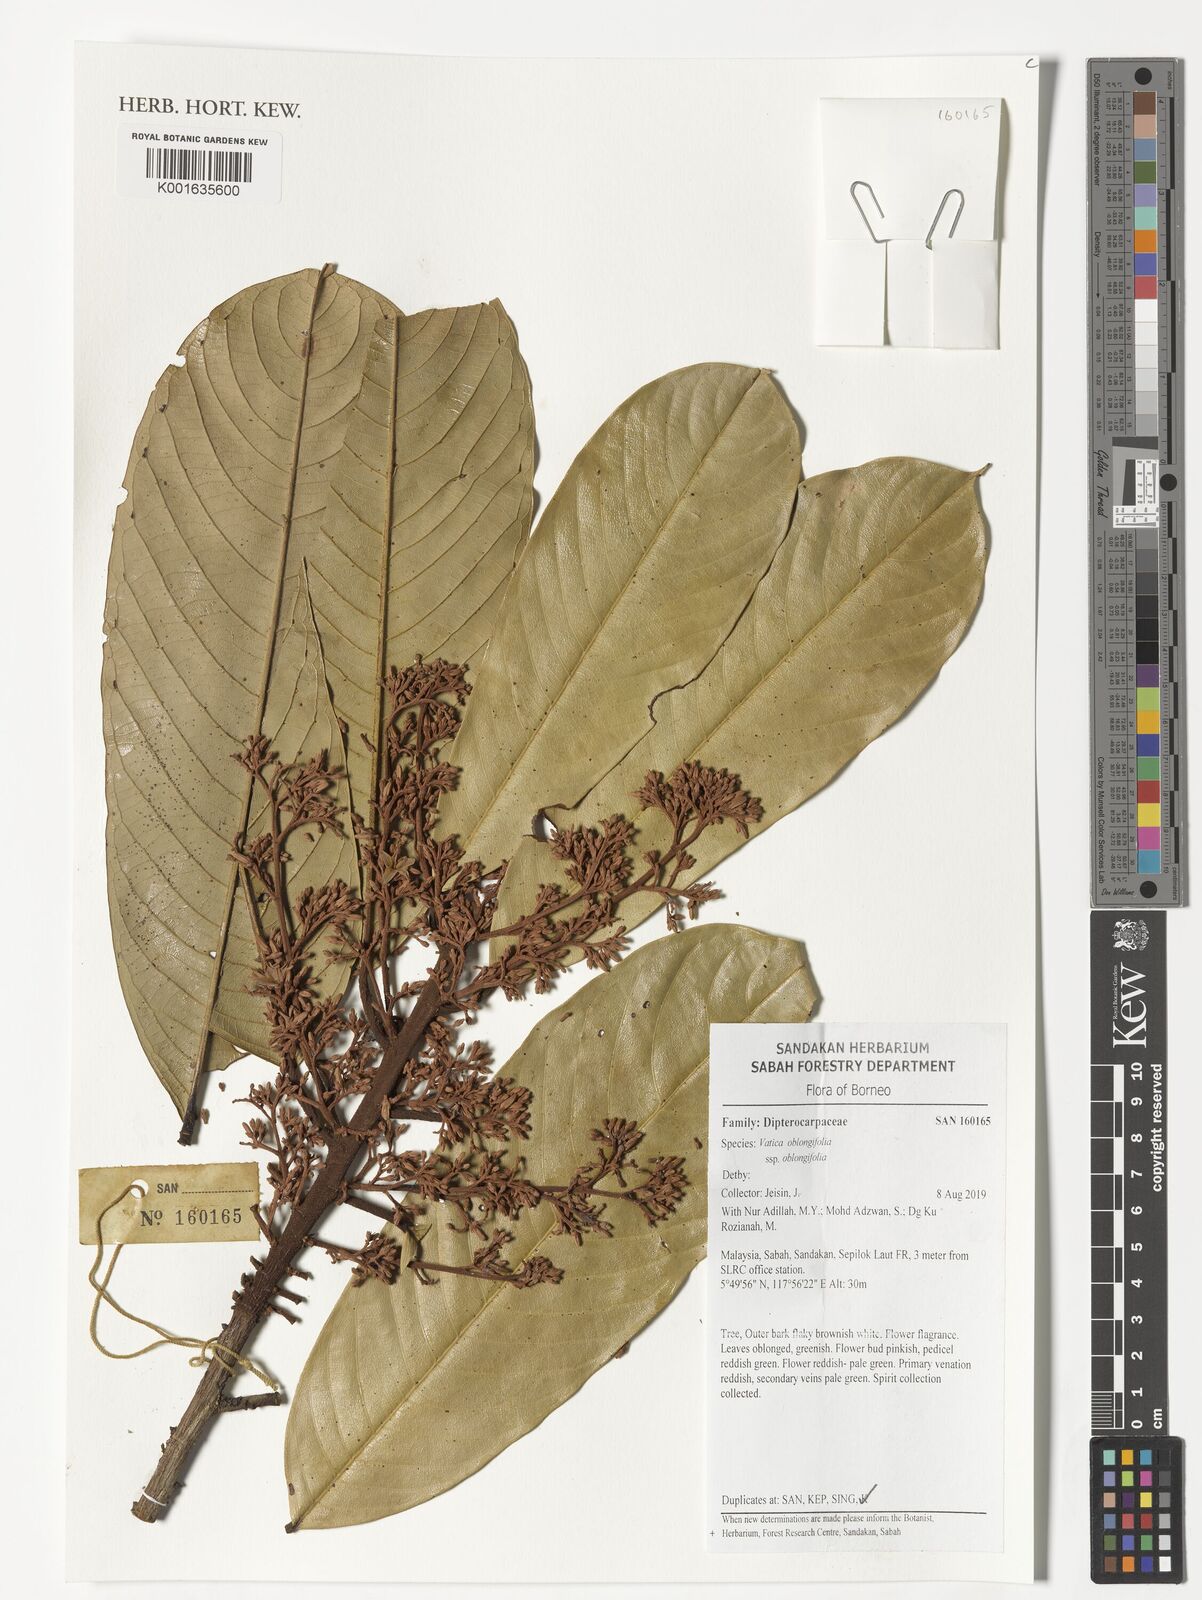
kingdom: Plantae
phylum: Tracheophyta
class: Magnoliopsida
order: Malvales
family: Dipterocarpaceae
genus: Vatica
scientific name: Vatica oblongifolia
